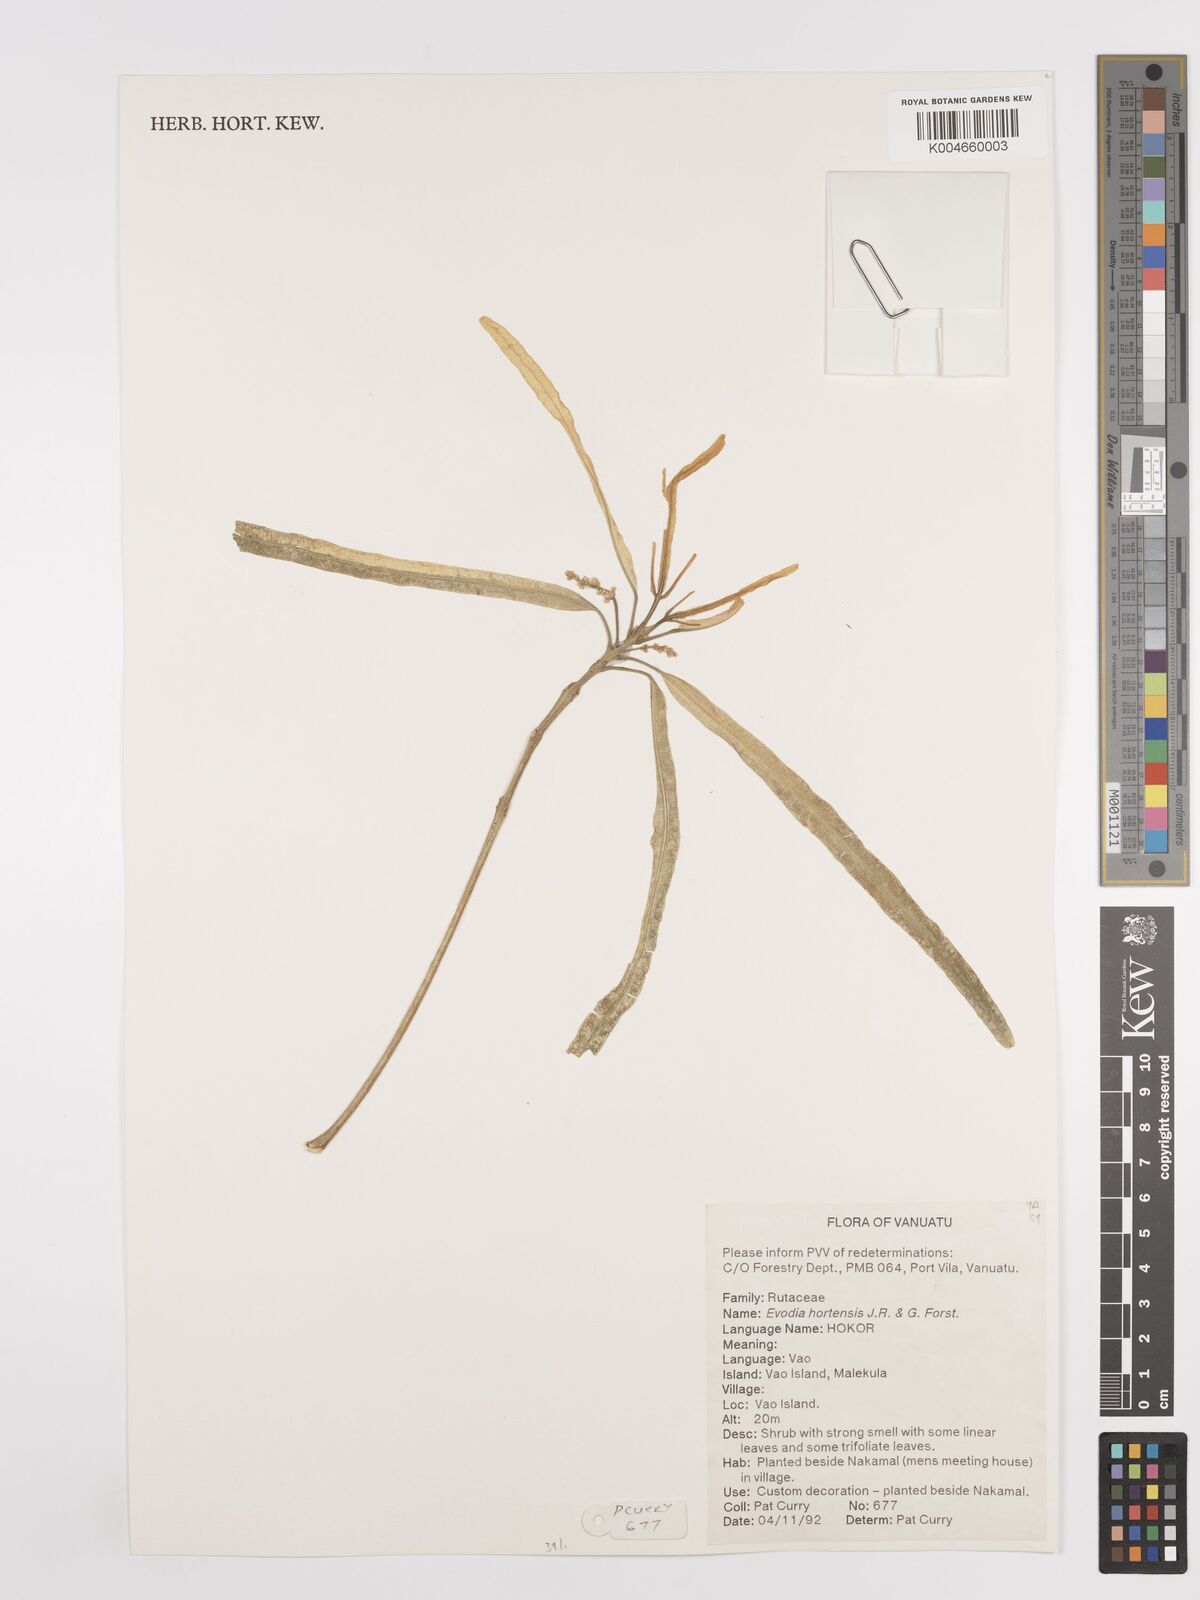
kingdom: Plantae
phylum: Tracheophyta
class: Magnoliopsida
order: Sapindales
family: Rutaceae
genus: Euodia
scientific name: Euodia hortensis
